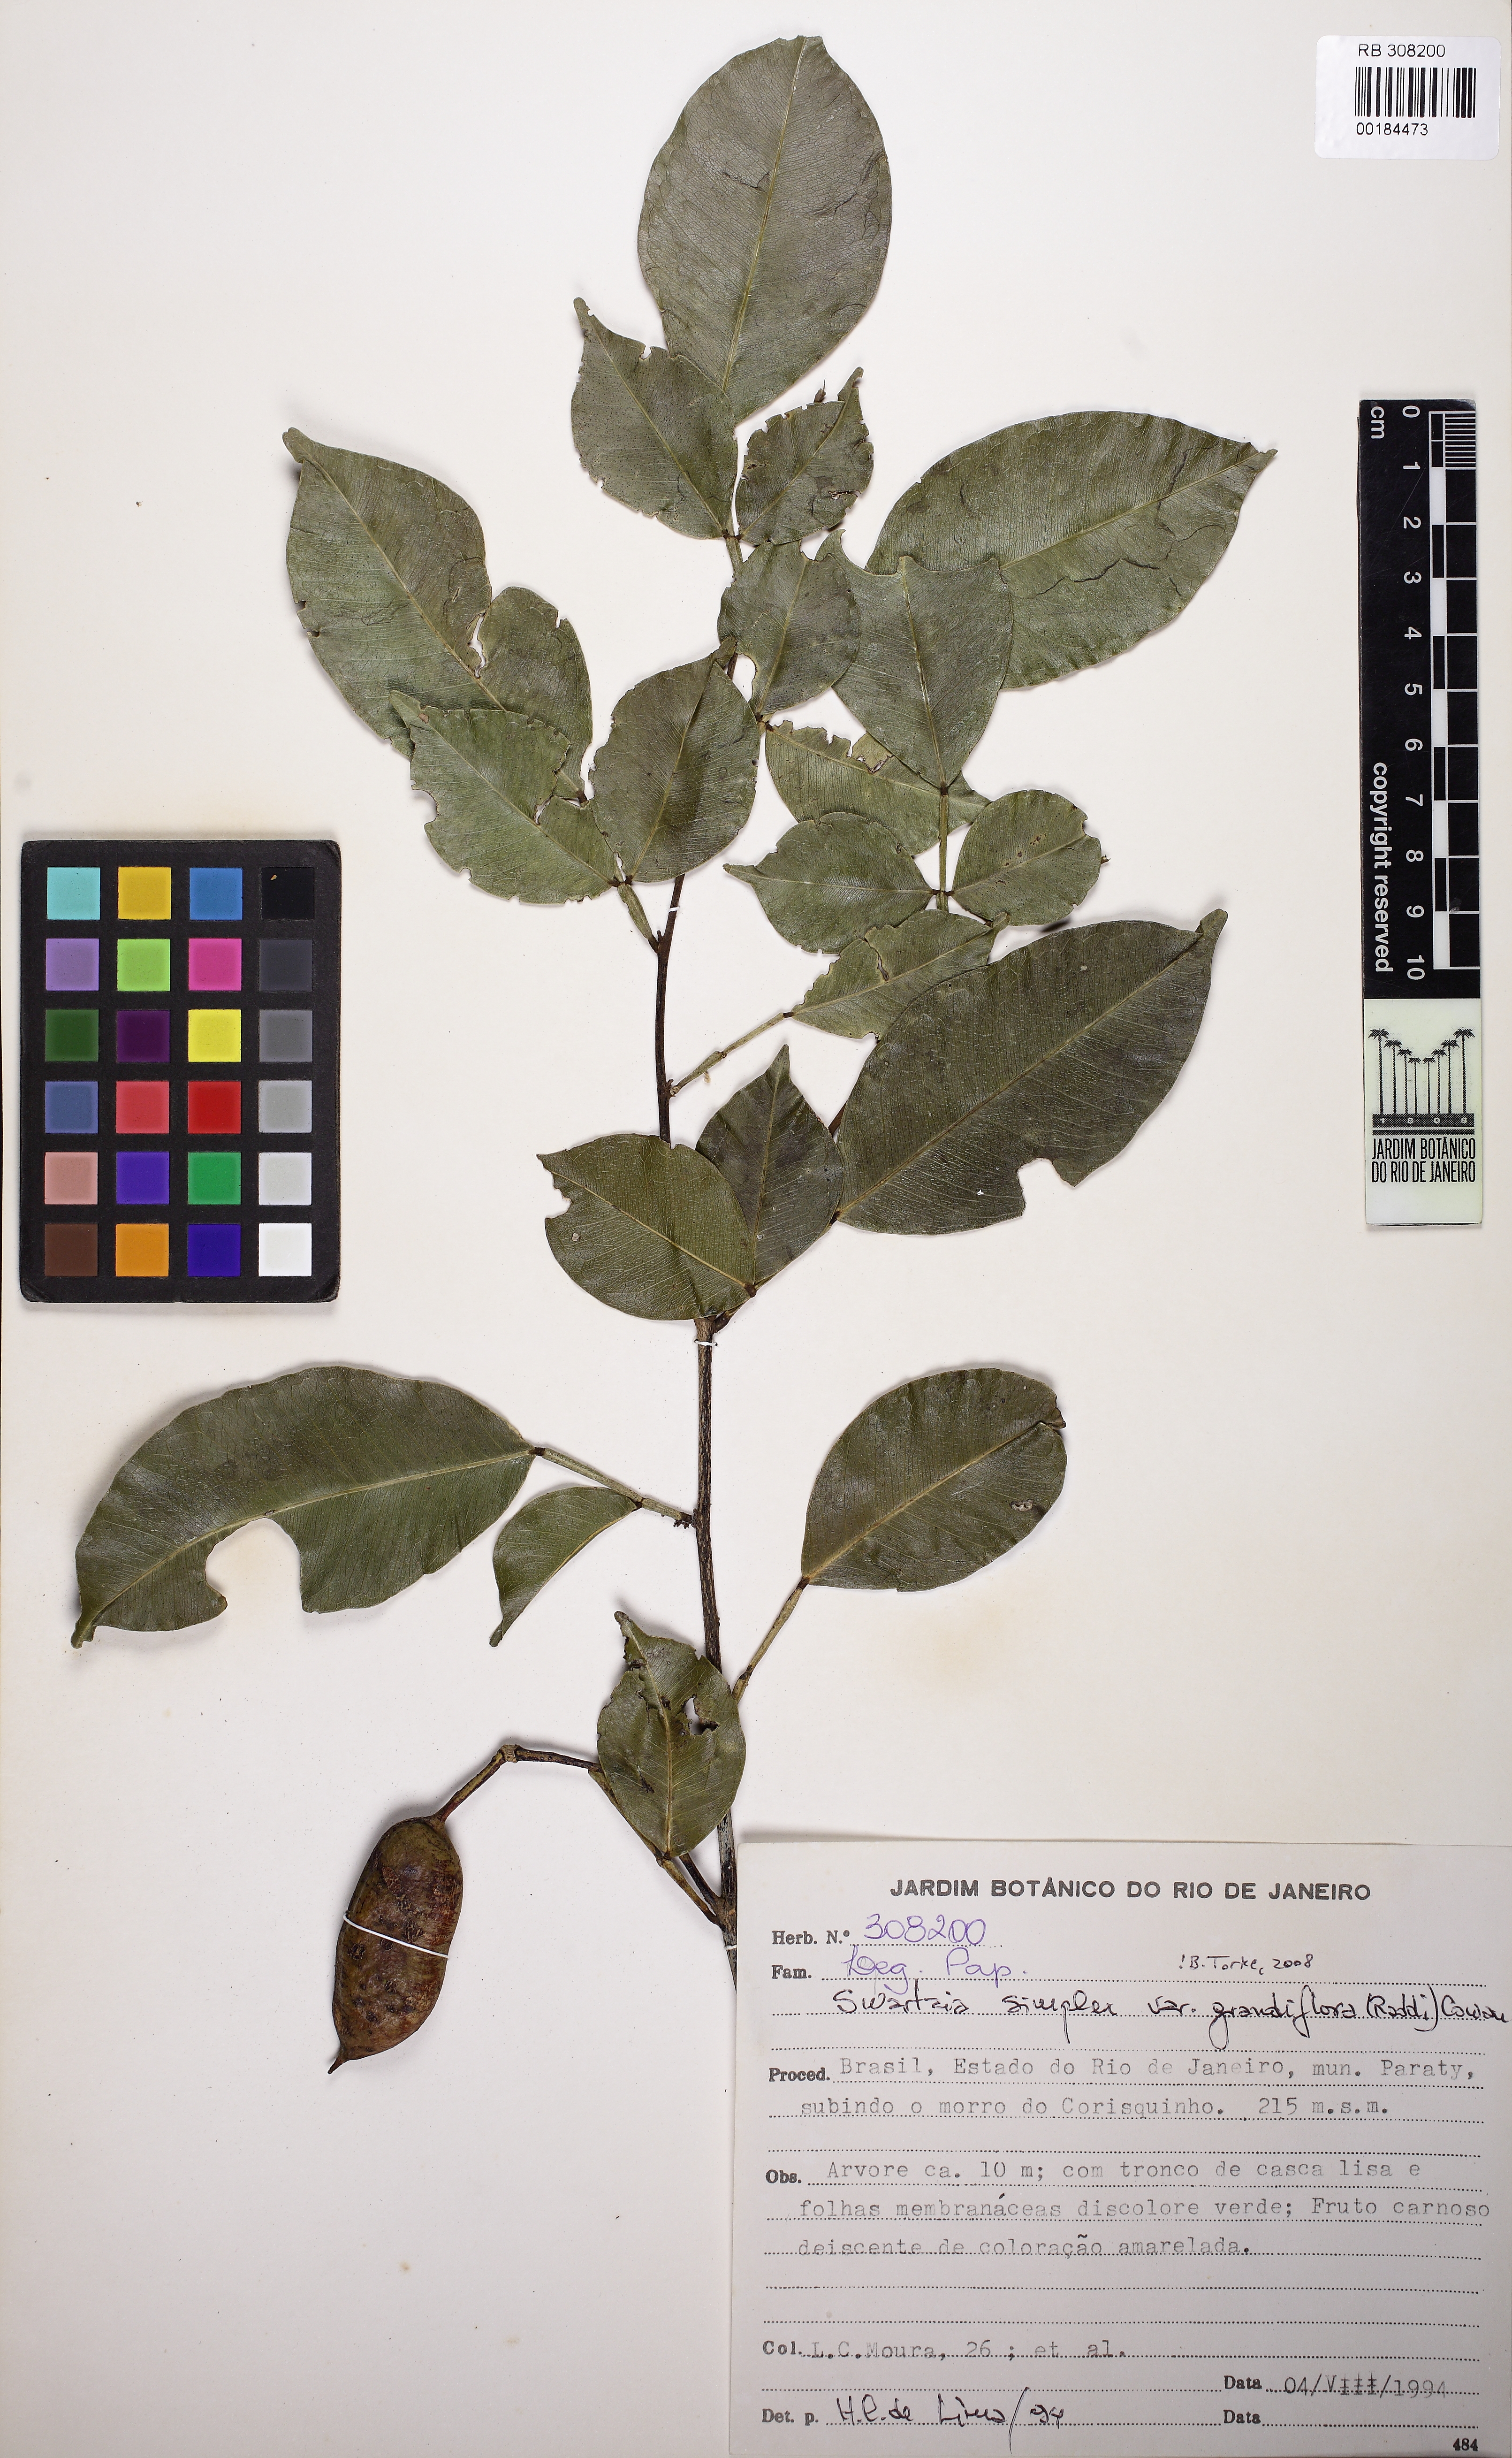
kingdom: Plantae
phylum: Tracheophyta
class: Magnoliopsida
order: Fabales
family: Fabaceae
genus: Swartzia
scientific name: Swartzia simplex
